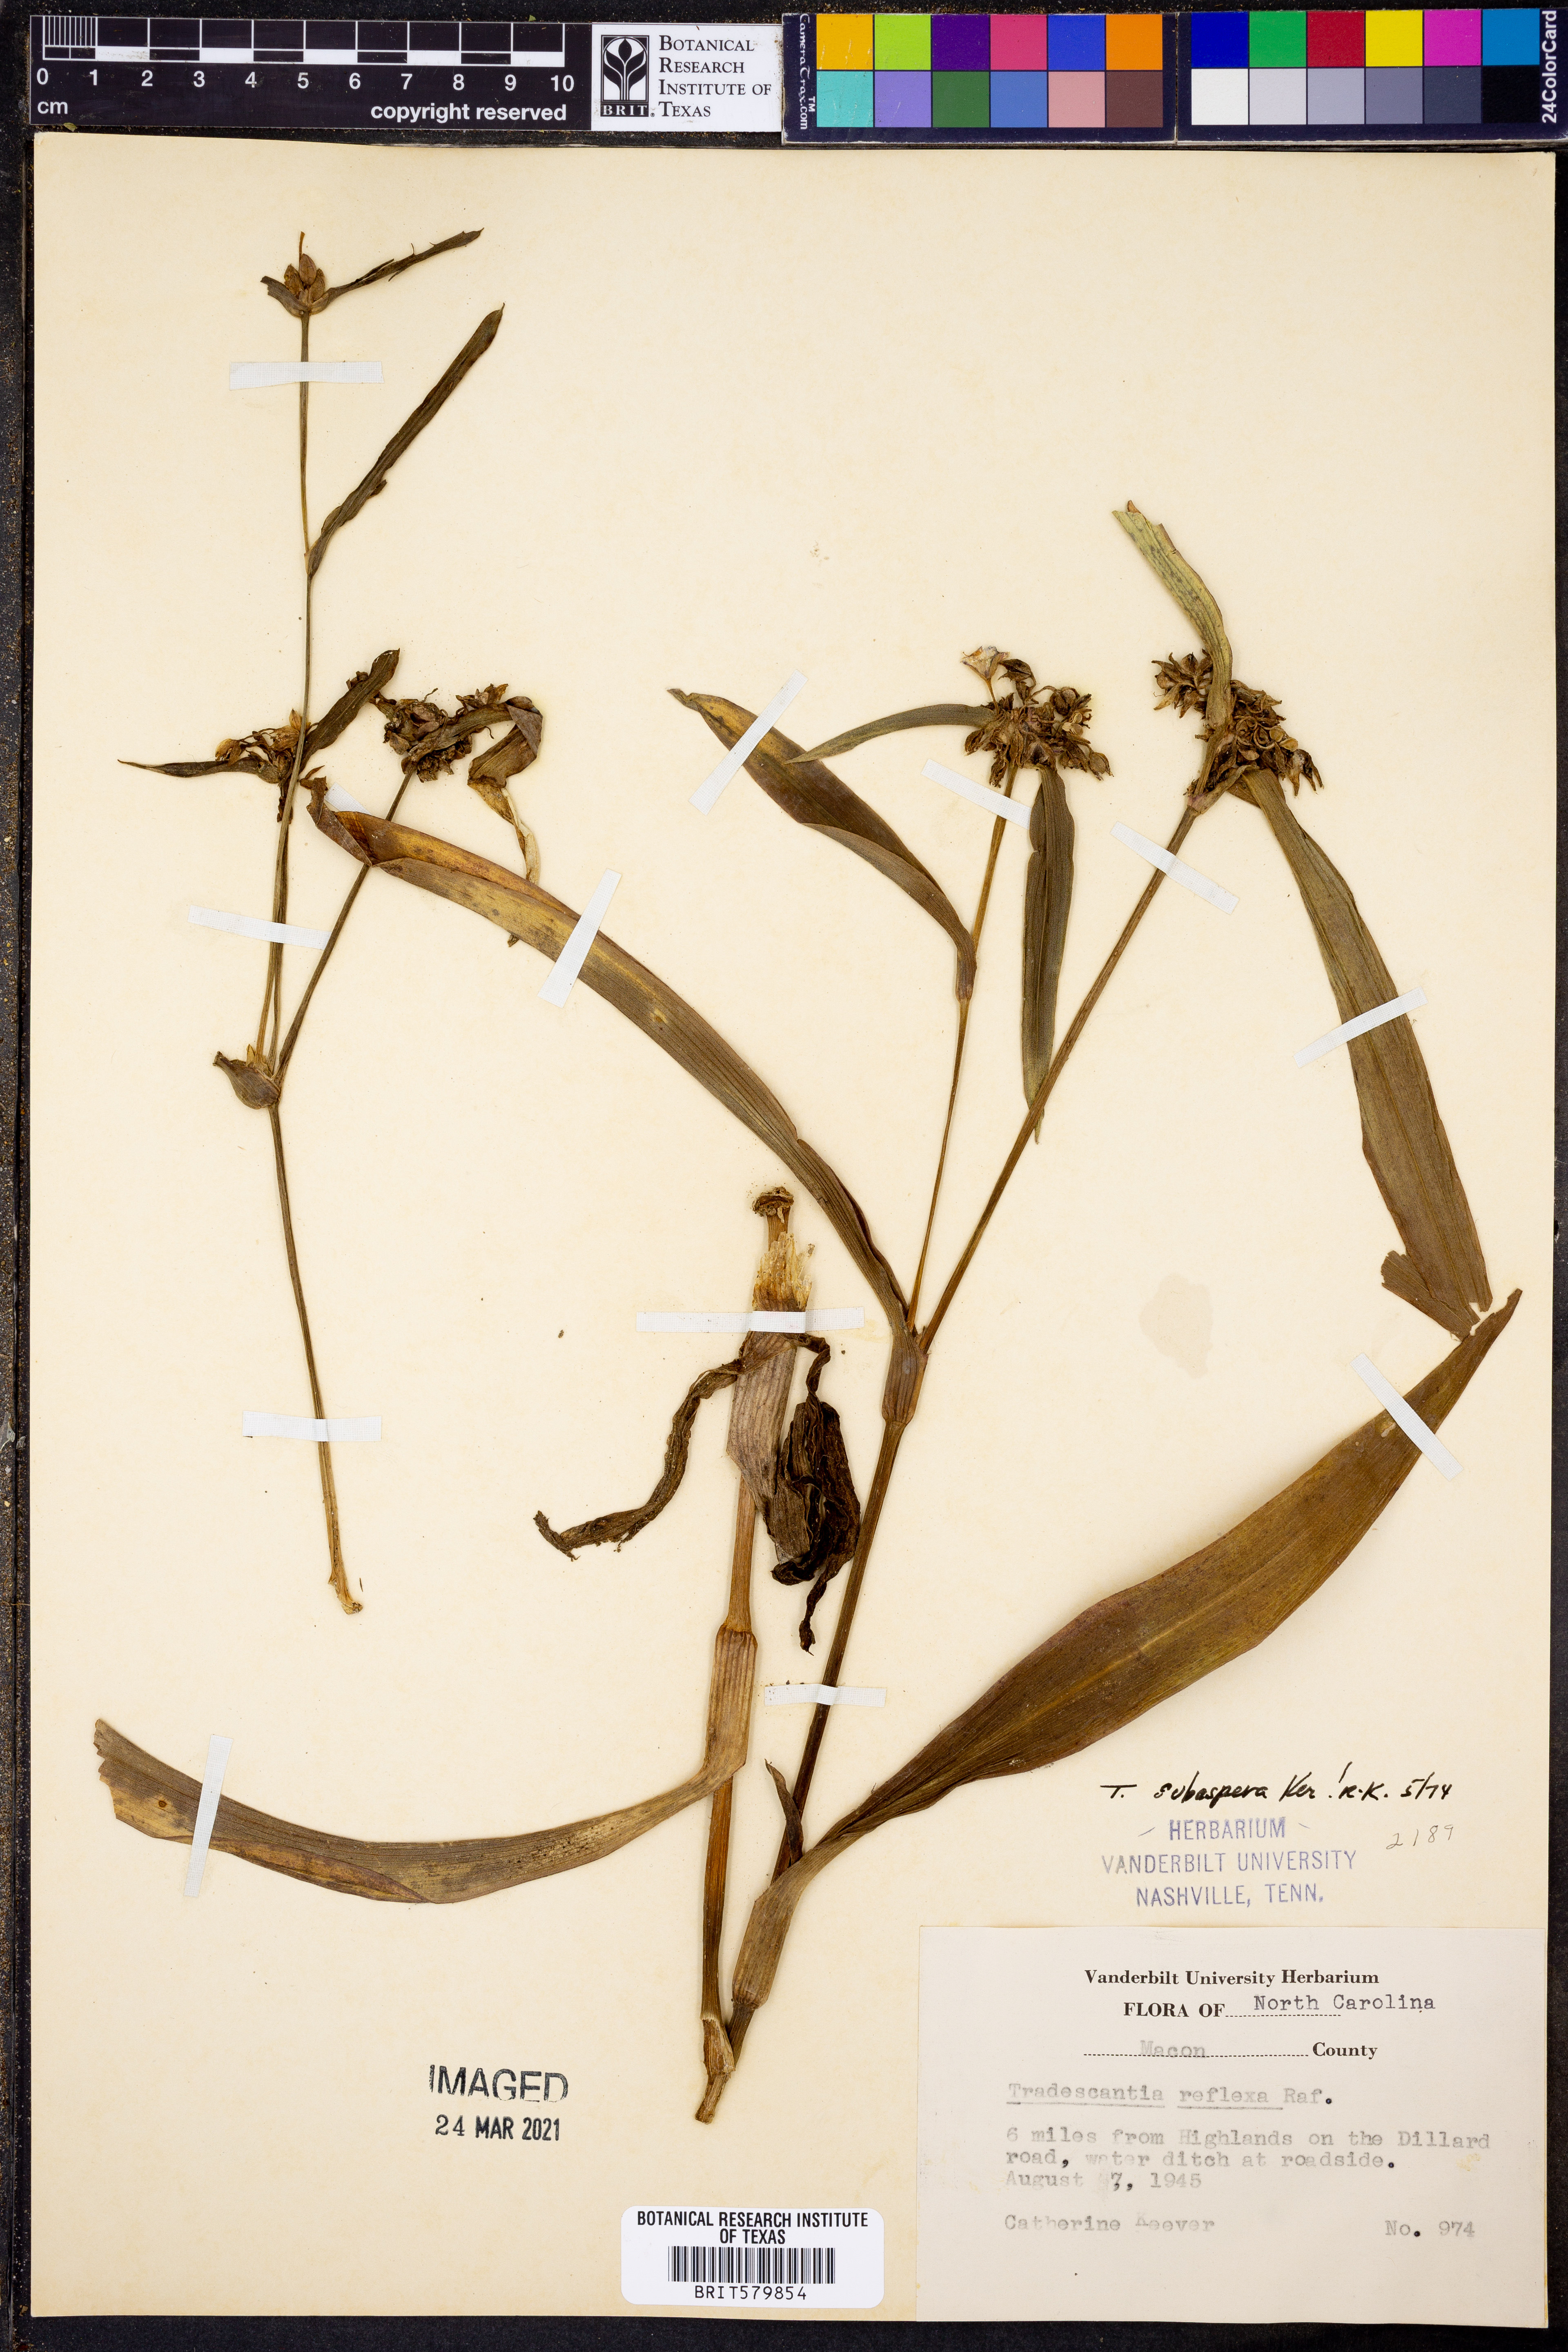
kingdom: Plantae
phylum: Tracheophyta
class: Liliopsida
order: Commelinales
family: Commelinaceae
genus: Tradescantia
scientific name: Tradescantia subaspera
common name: Wide-leaf spiderwort
